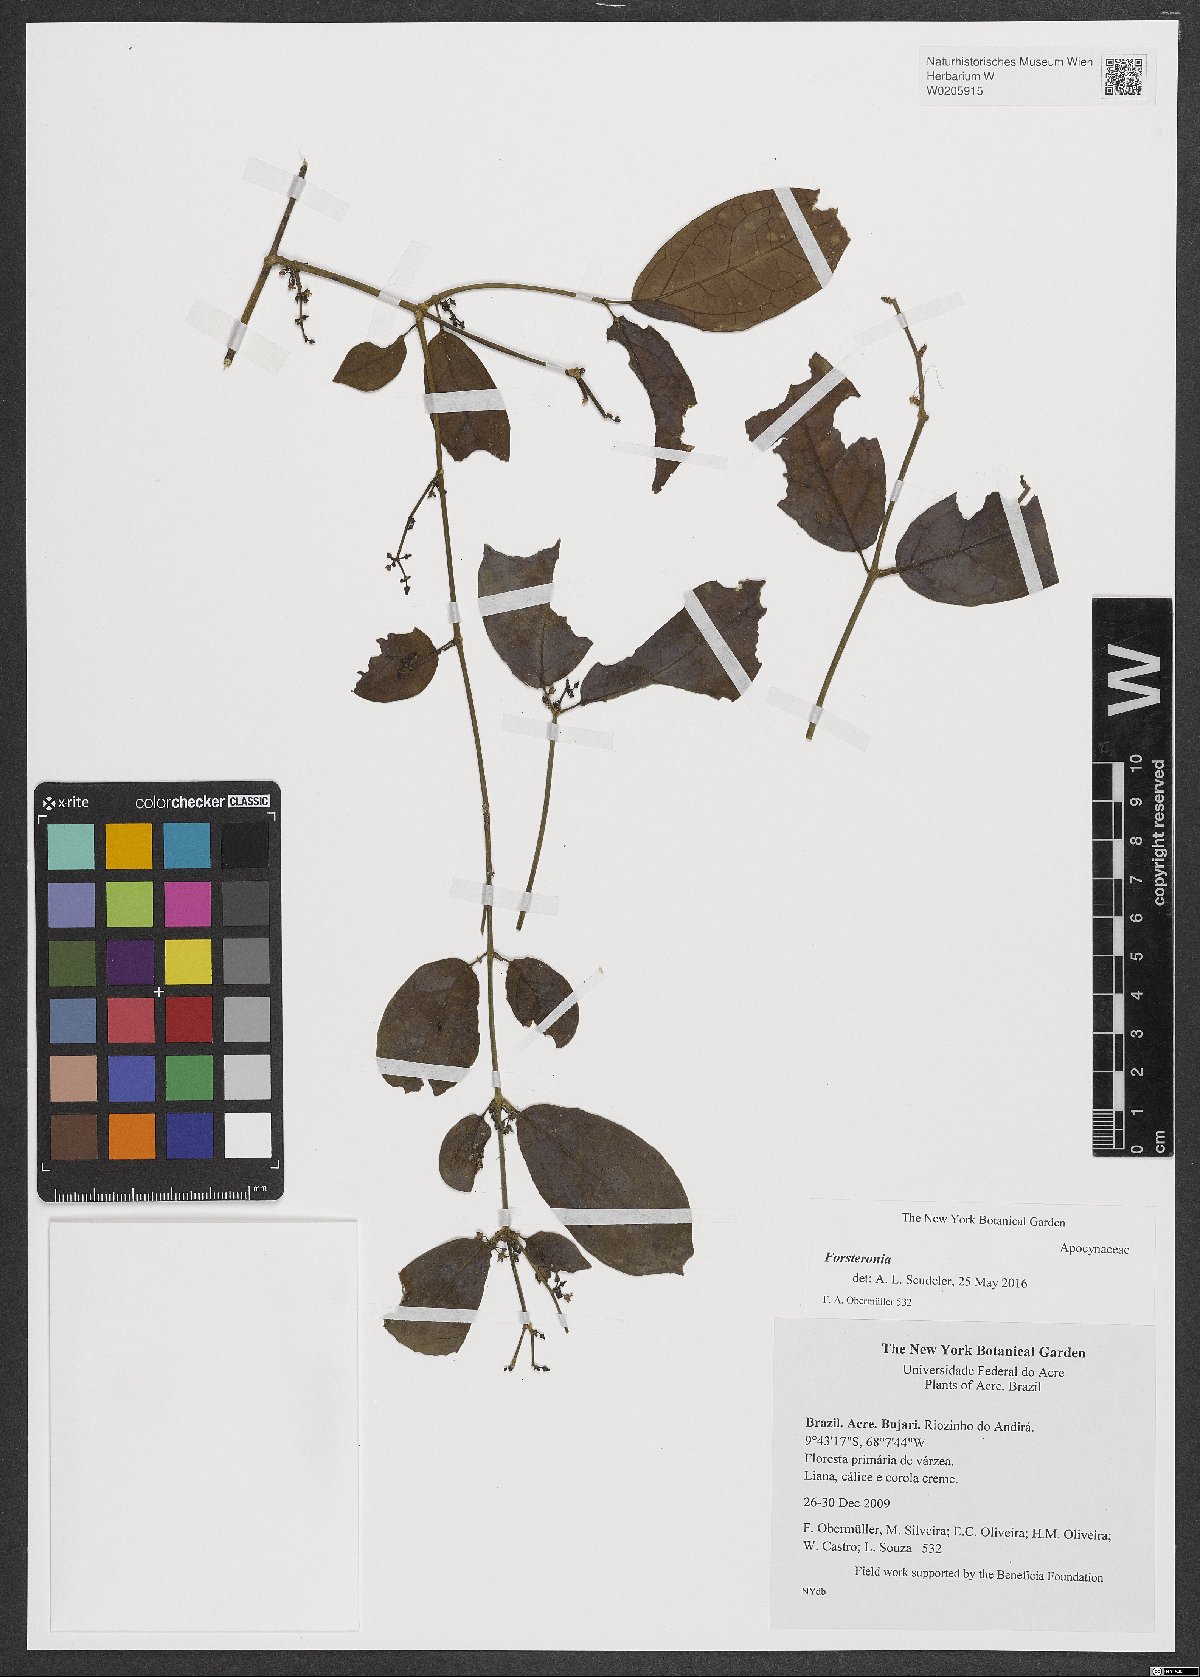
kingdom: Plantae
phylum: Tracheophyta
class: Magnoliopsida
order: Gentianales
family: Apocynaceae
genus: Forsteronia
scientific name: Forsteronia
